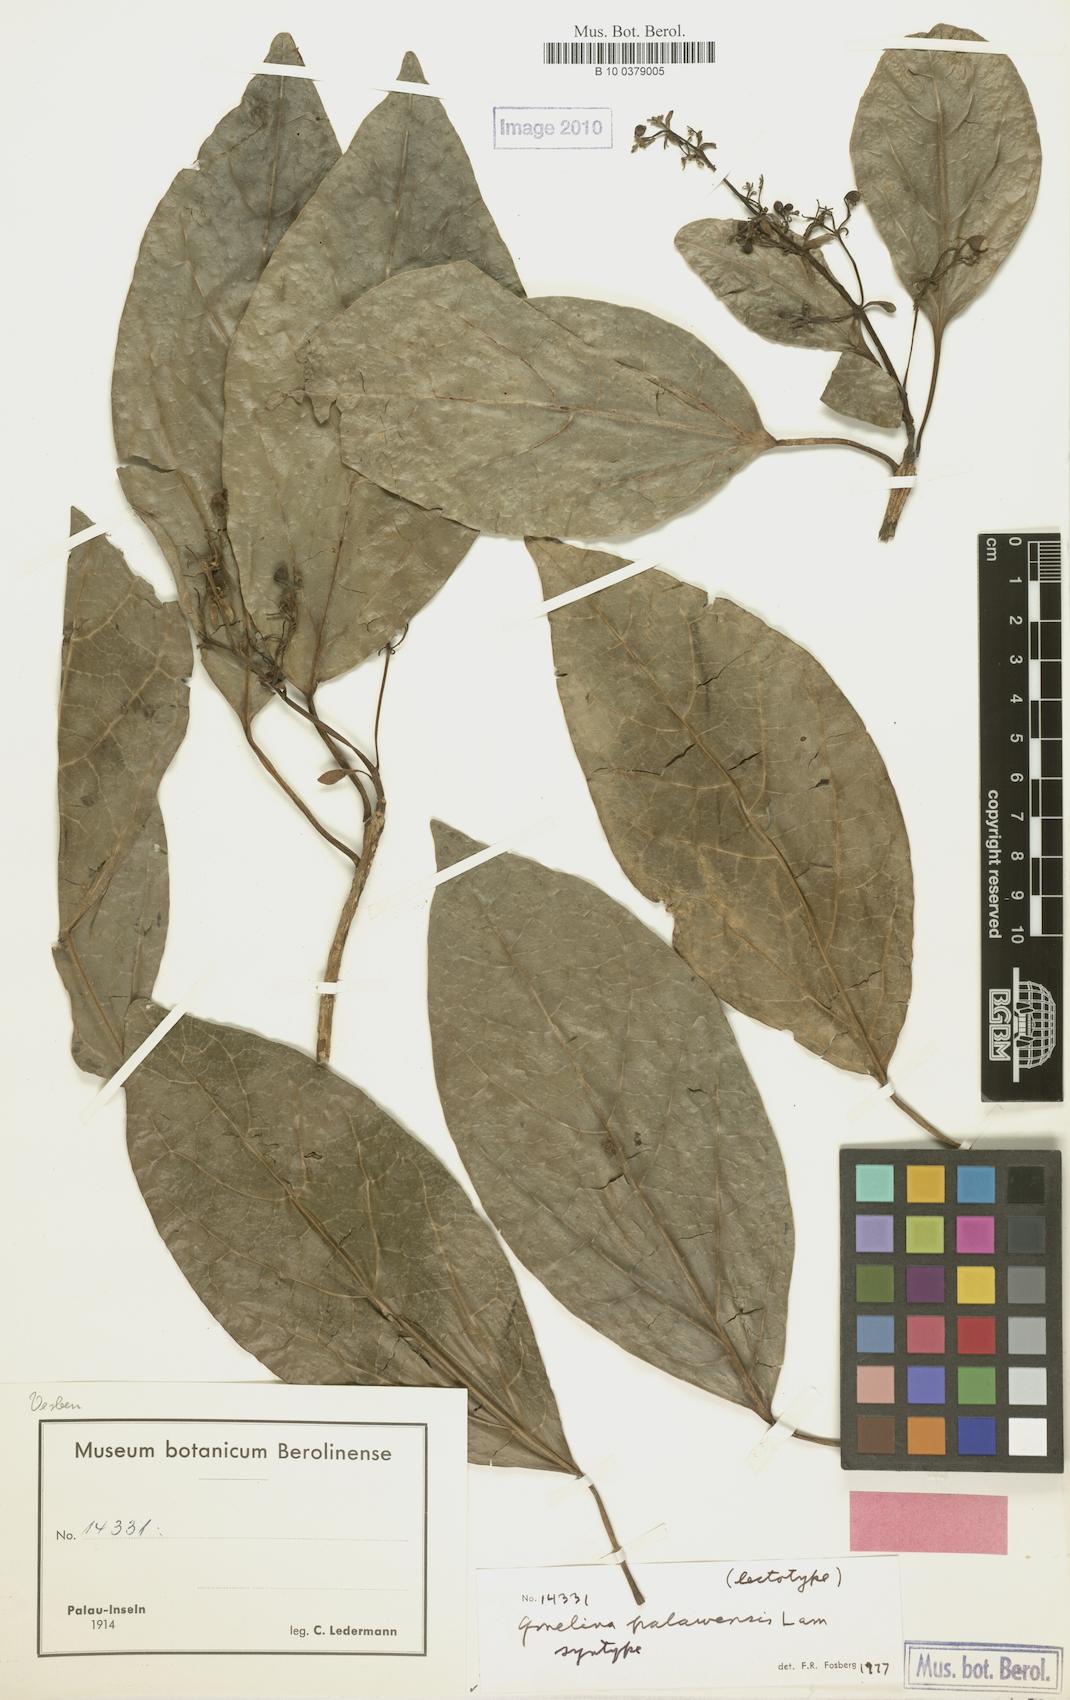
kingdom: Plantae
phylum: Tracheophyta
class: Magnoliopsida
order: Lamiales
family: Lamiaceae
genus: Gmelina
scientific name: Gmelina palawensis
